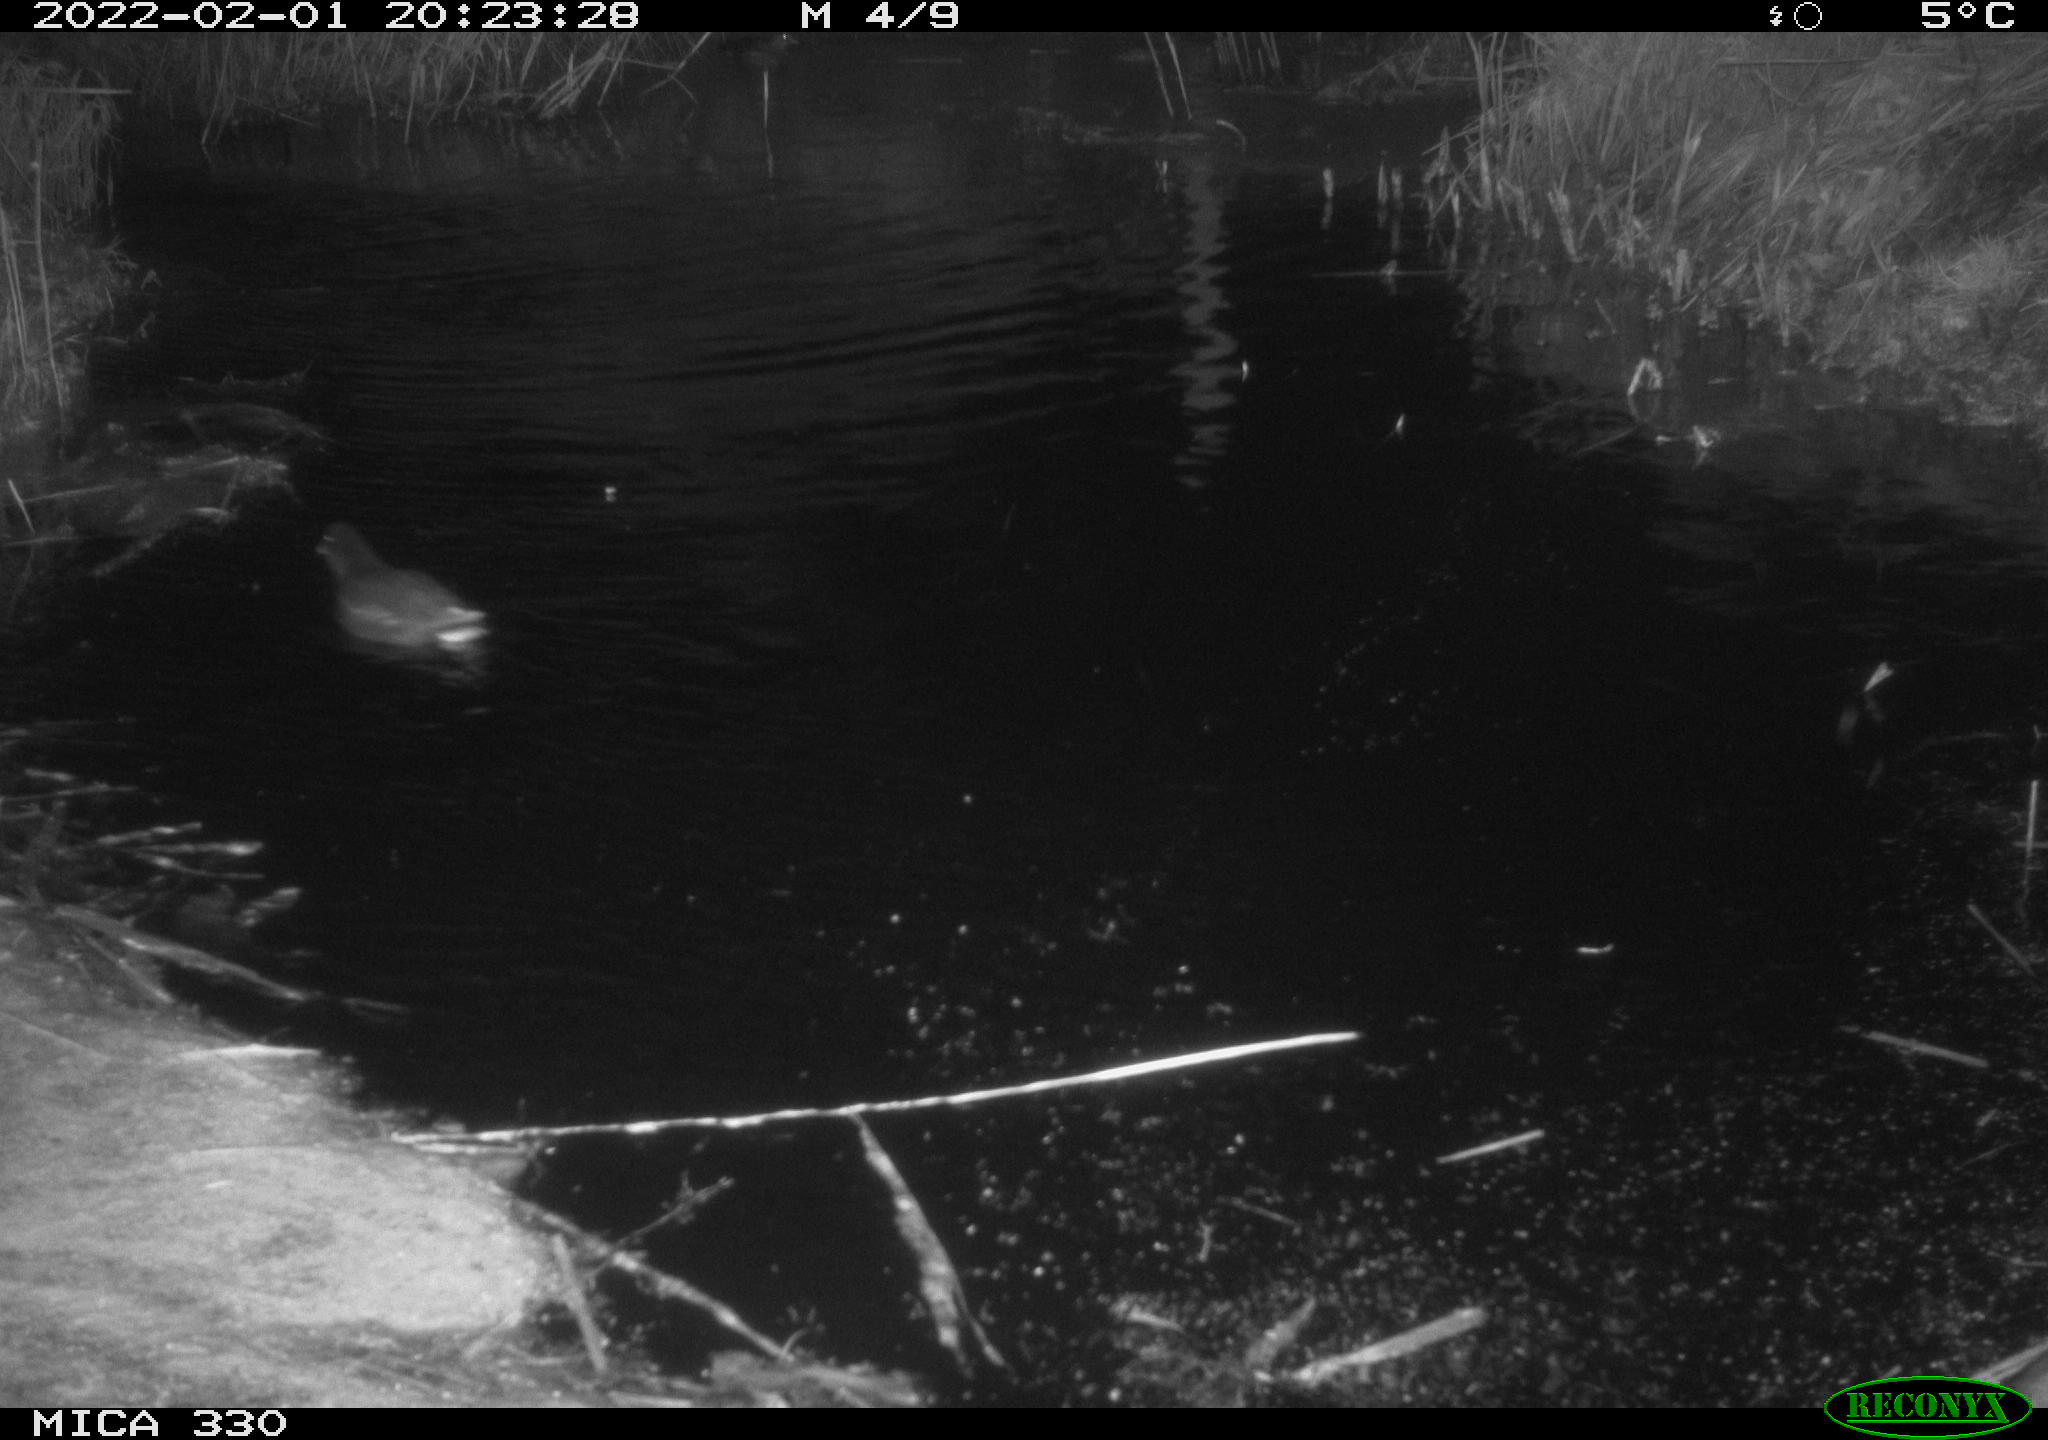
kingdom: Animalia
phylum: Chordata
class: Aves
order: Gruiformes
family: Rallidae
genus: Gallinula
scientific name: Gallinula chloropus
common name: Common moorhen
